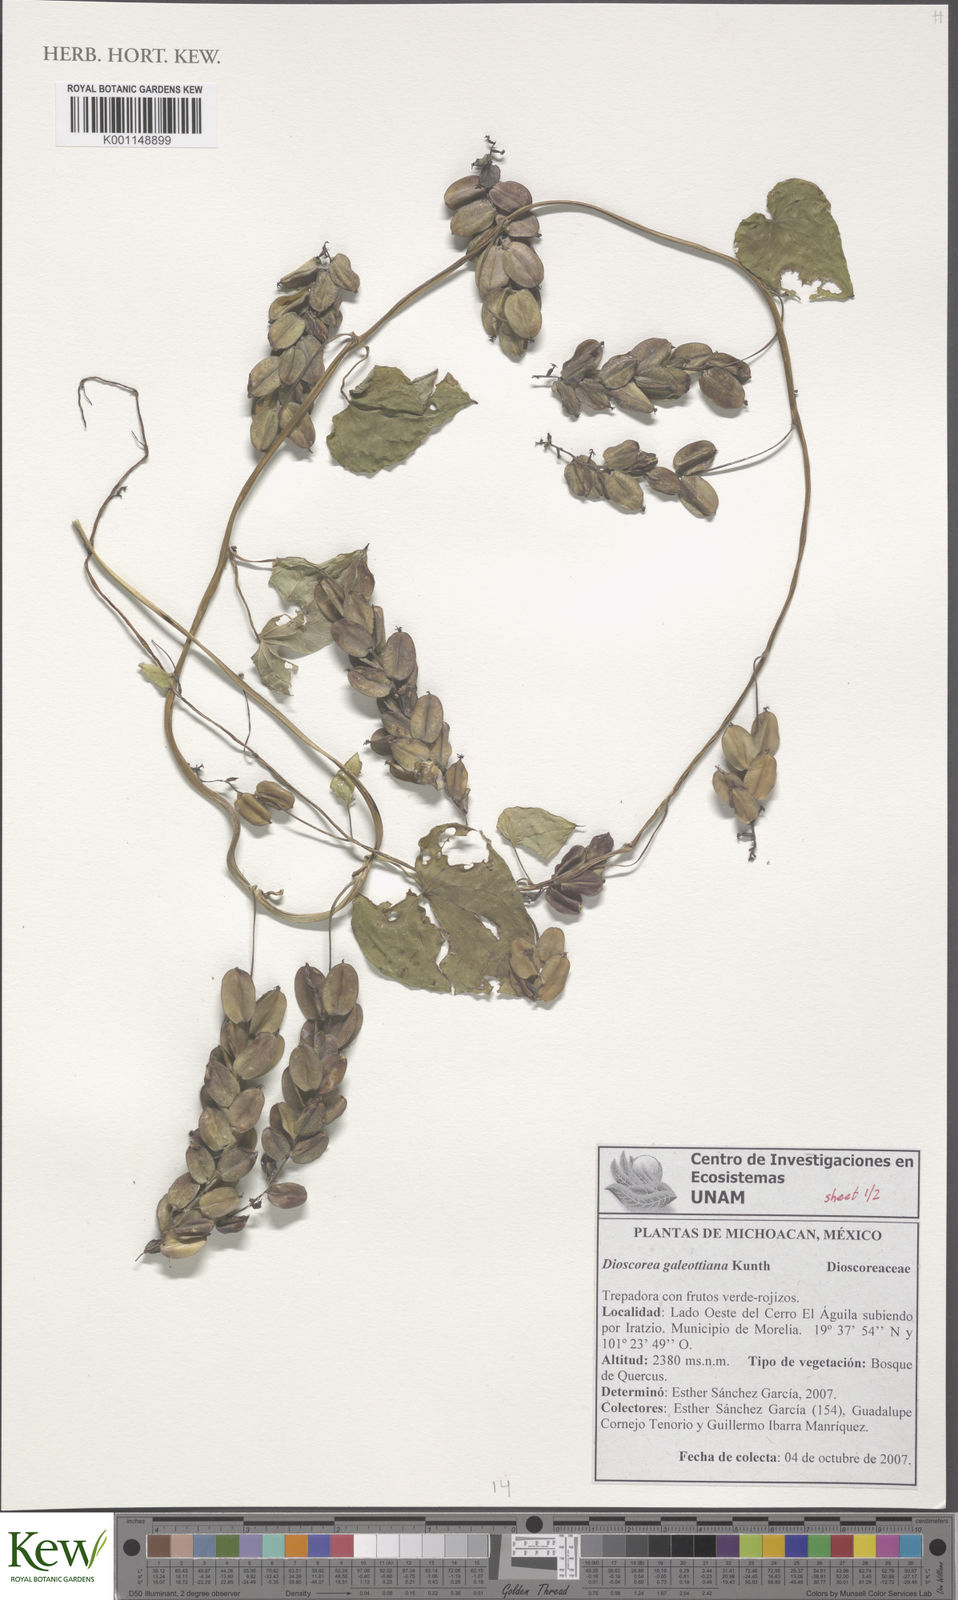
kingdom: Plantae
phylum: Tracheophyta
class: Liliopsida
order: Dioscoreales
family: Dioscoreaceae
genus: Dioscorea
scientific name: Dioscorea galeottiana
